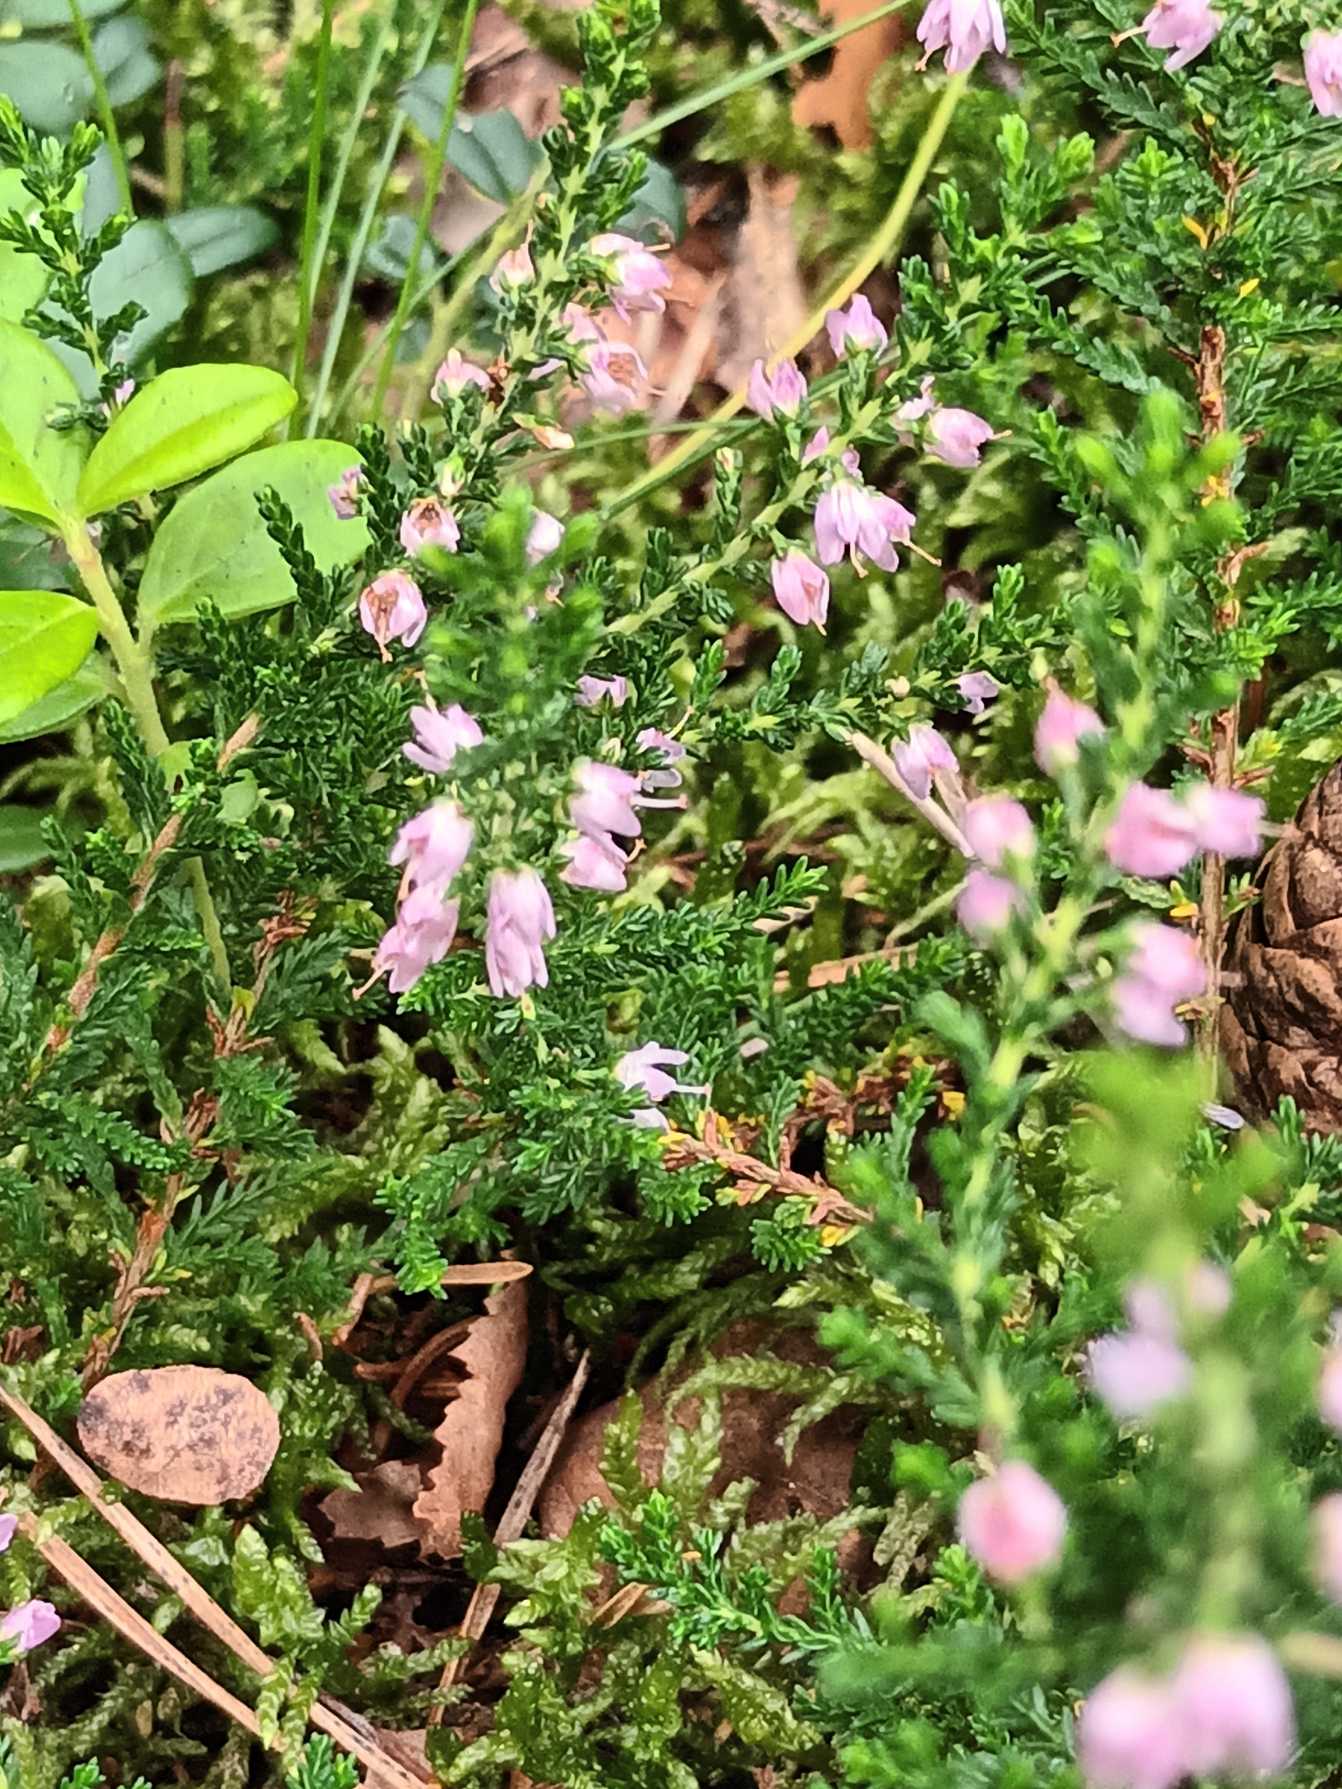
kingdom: Plantae
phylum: Tracheophyta
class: Magnoliopsida
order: Ericales
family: Ericaceae
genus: Calluna
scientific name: Calluna vulgaris
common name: Hedelyng
